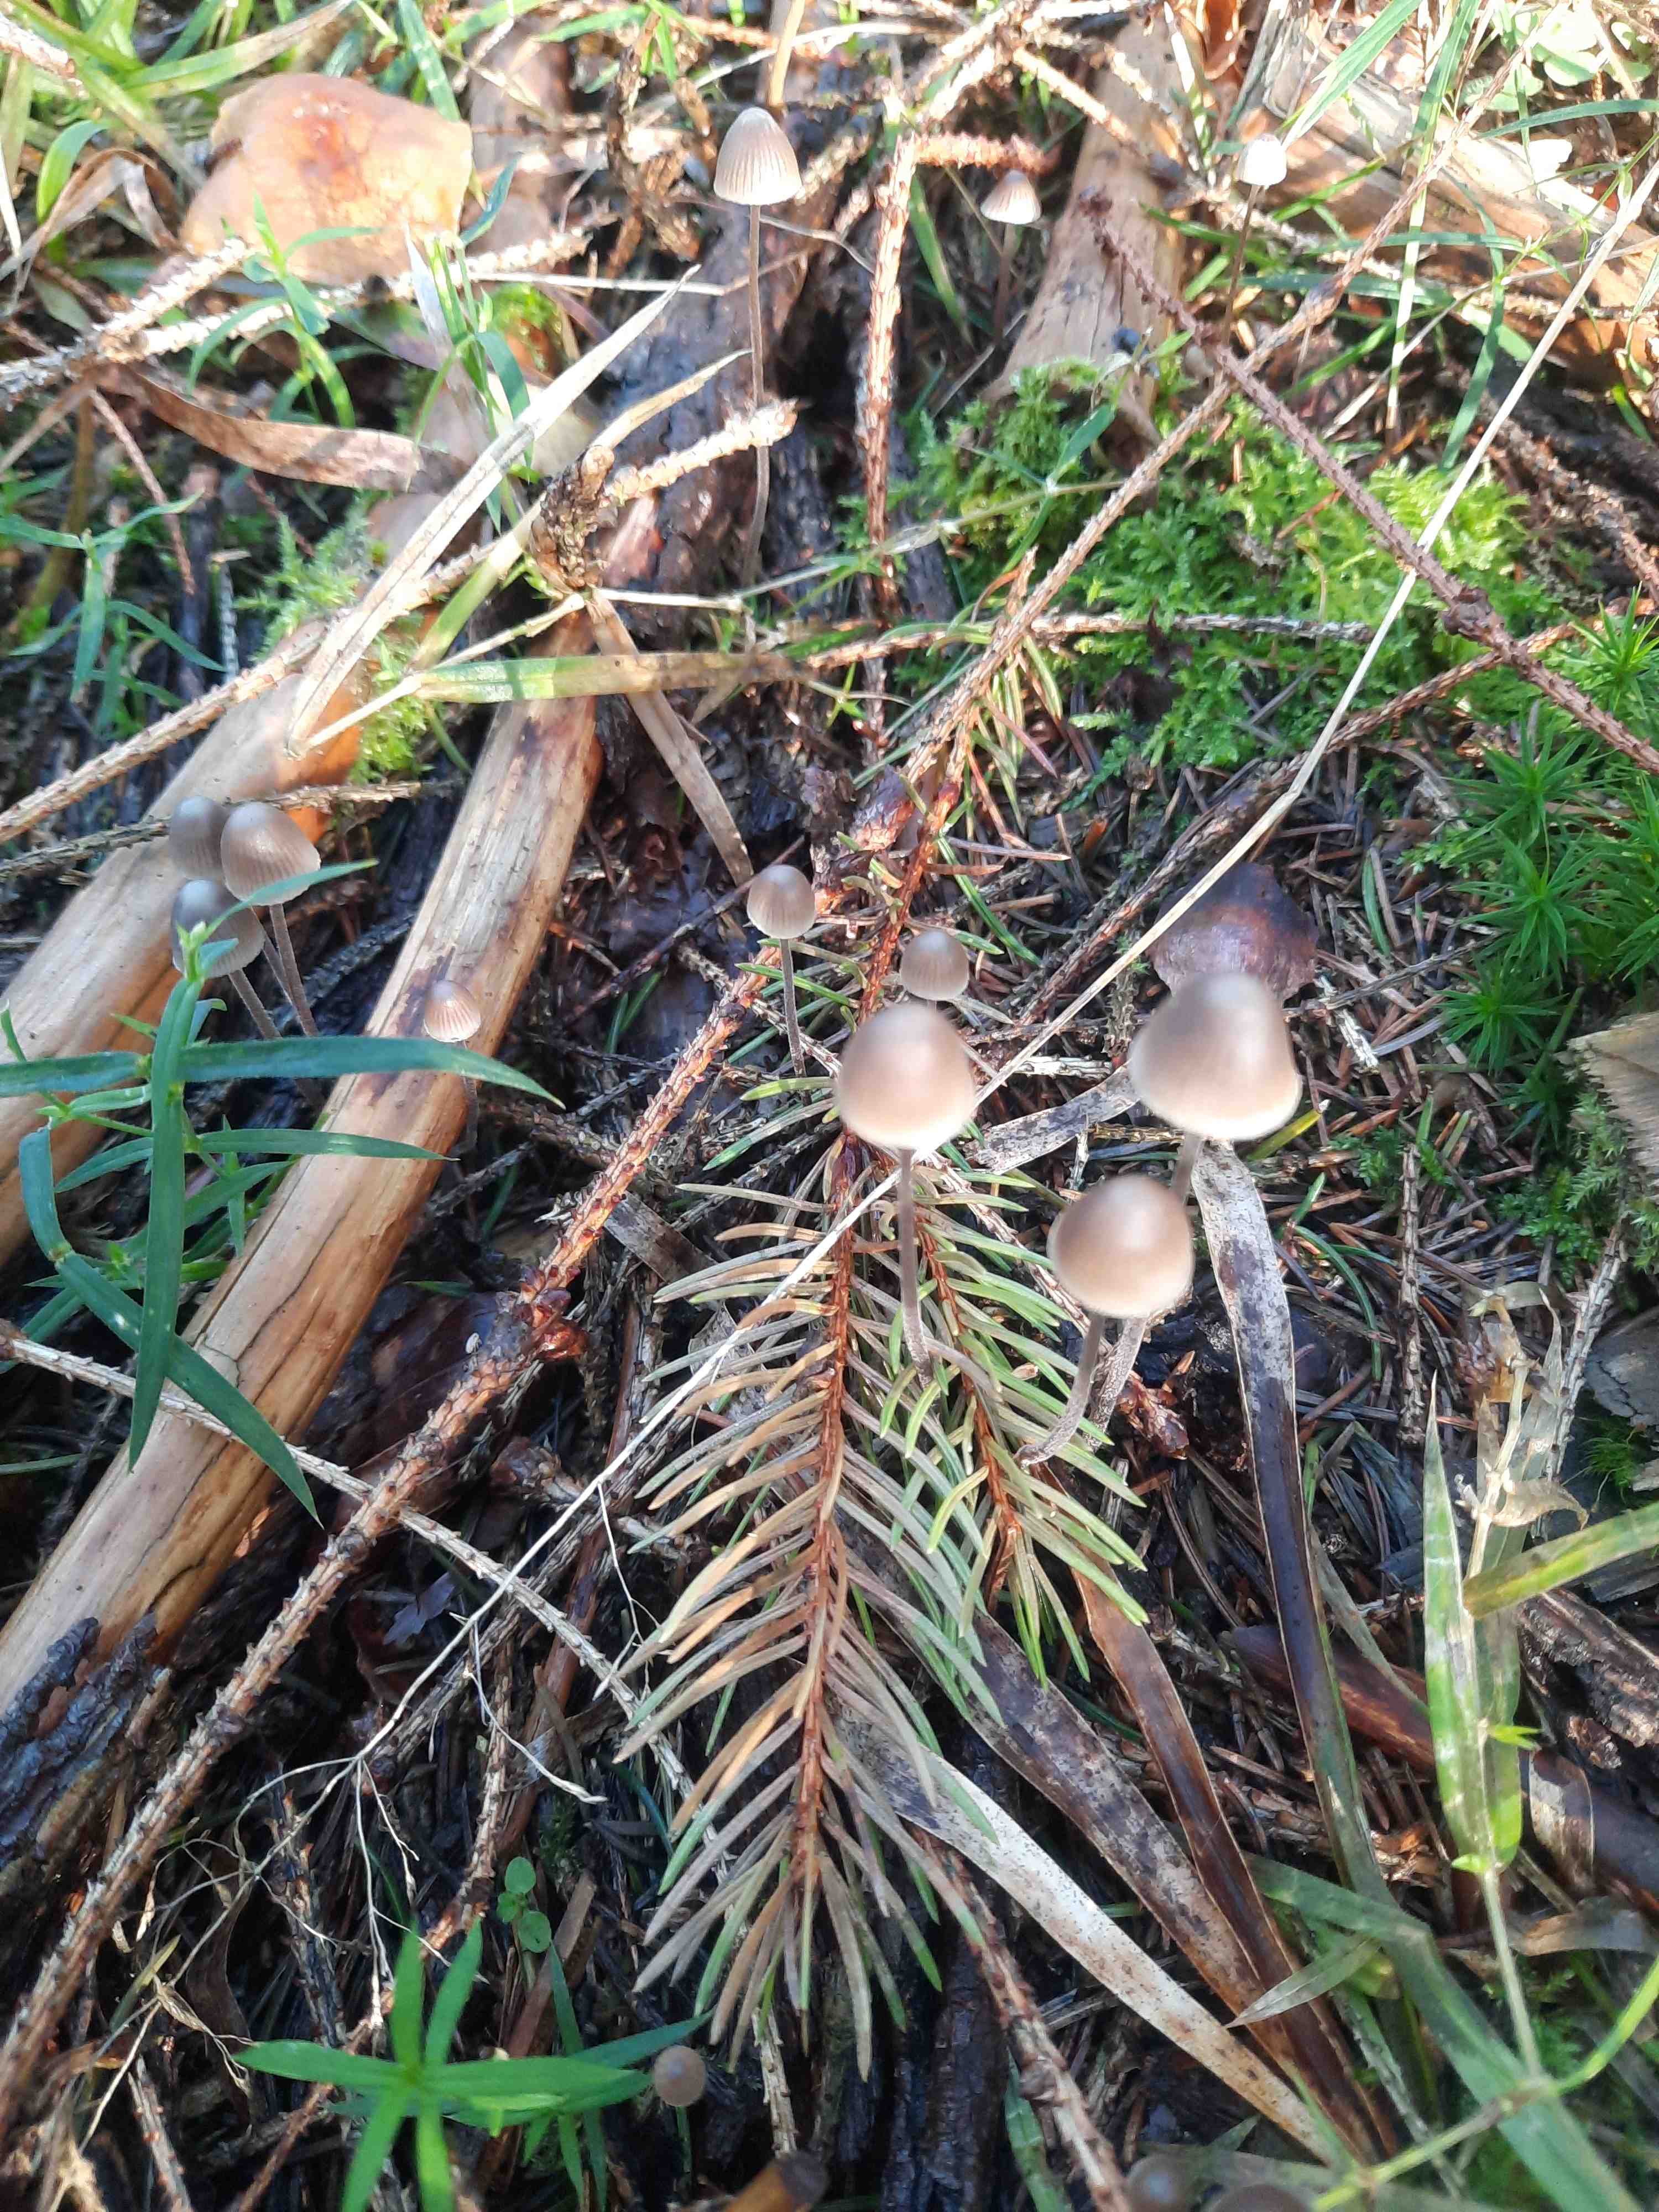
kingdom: Fungi
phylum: Basidiomycota
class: Agaricomycetes
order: Agaricales
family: Mycenaceae
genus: Mycena
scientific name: Mycena amicta
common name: iris-huesvamp
